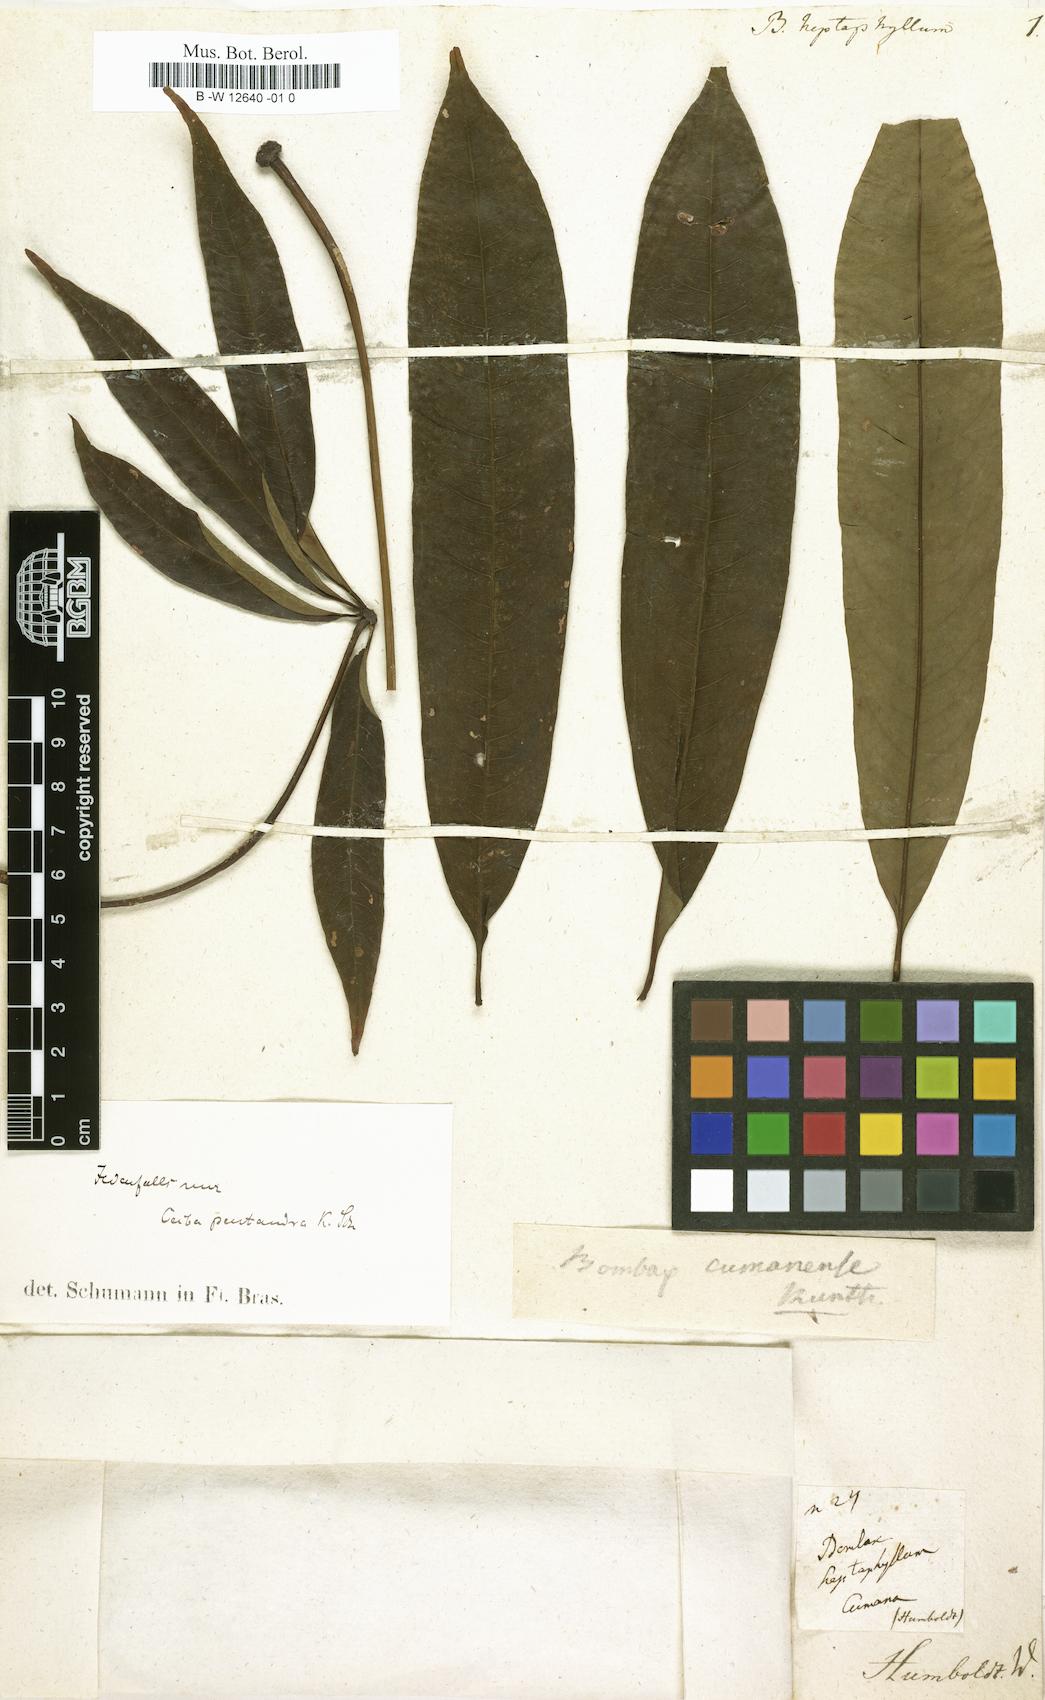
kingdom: Plantae
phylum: Tracheophyta
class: Magnoliopsida
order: Malvales
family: Malvaceae
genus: Pseudobombax
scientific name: Pseudobombax septenatum
